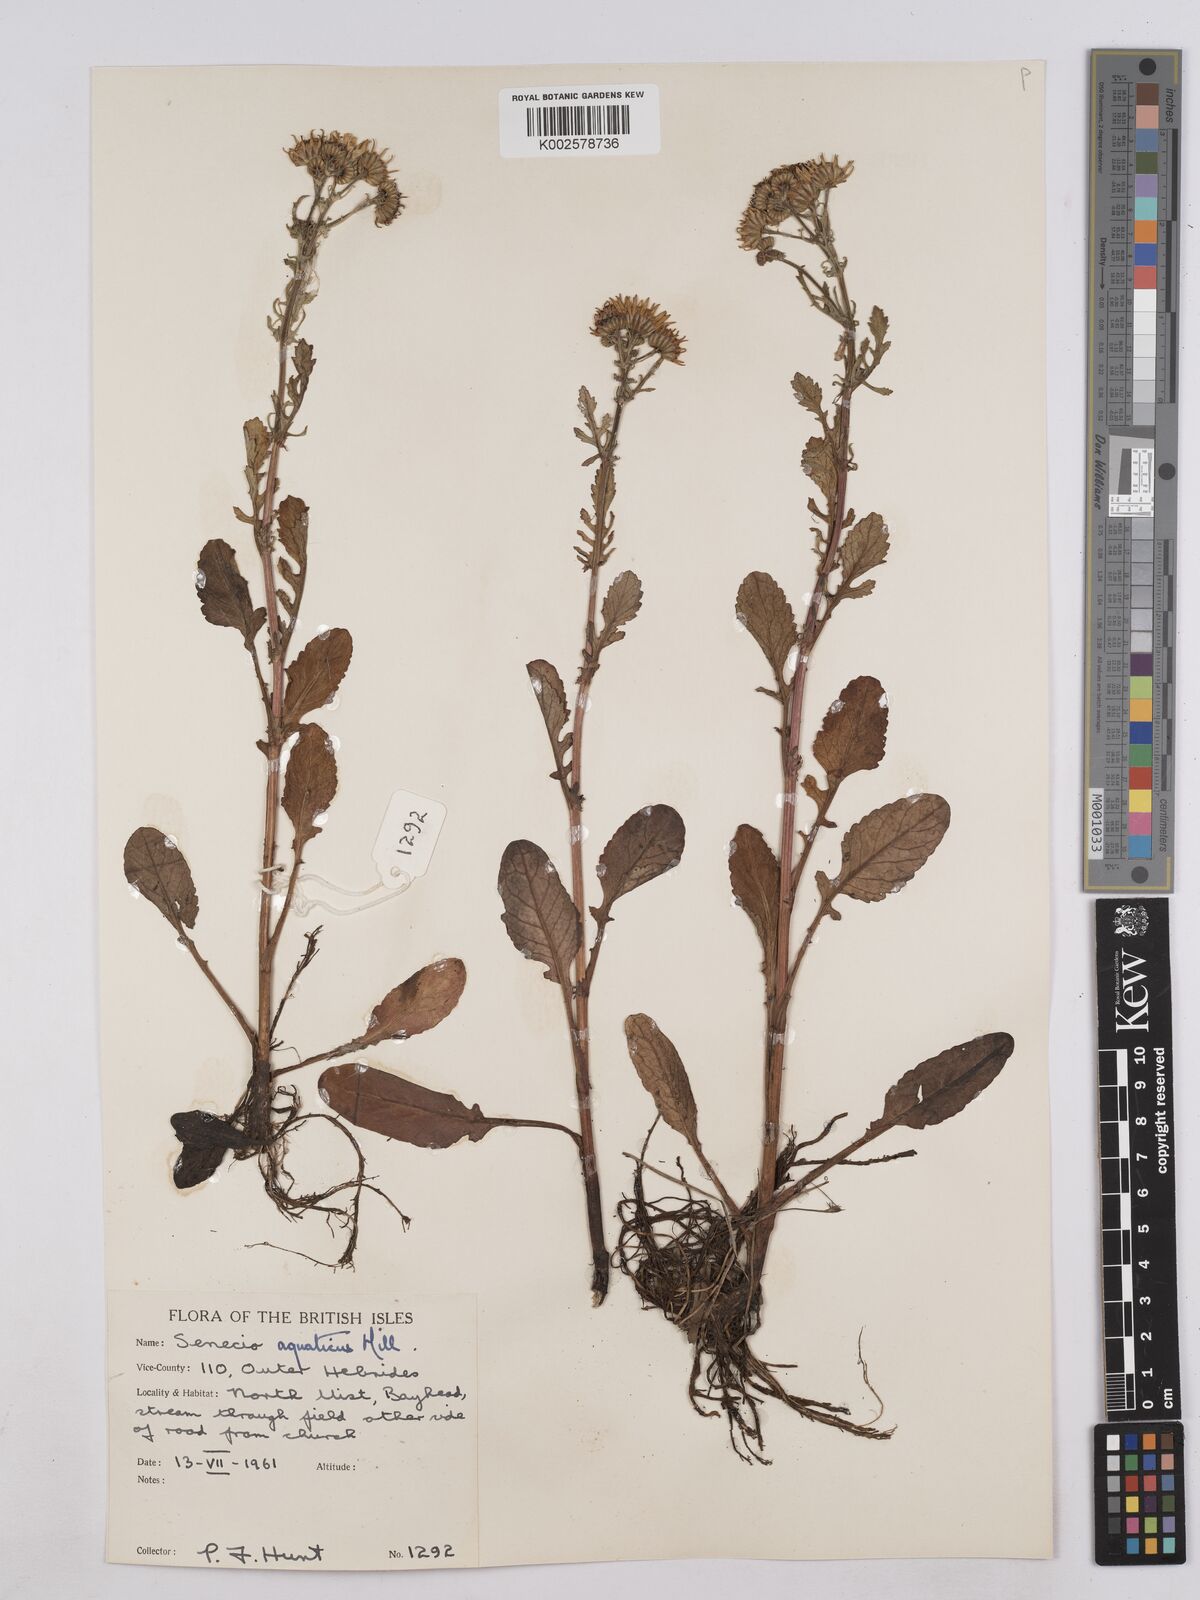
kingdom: Plantae
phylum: Tracheophyta
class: Magnoliopsida
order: Asterales
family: Asteraceae
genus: Jacobaea
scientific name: Jacobaea aquatica
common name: Water ragwort
